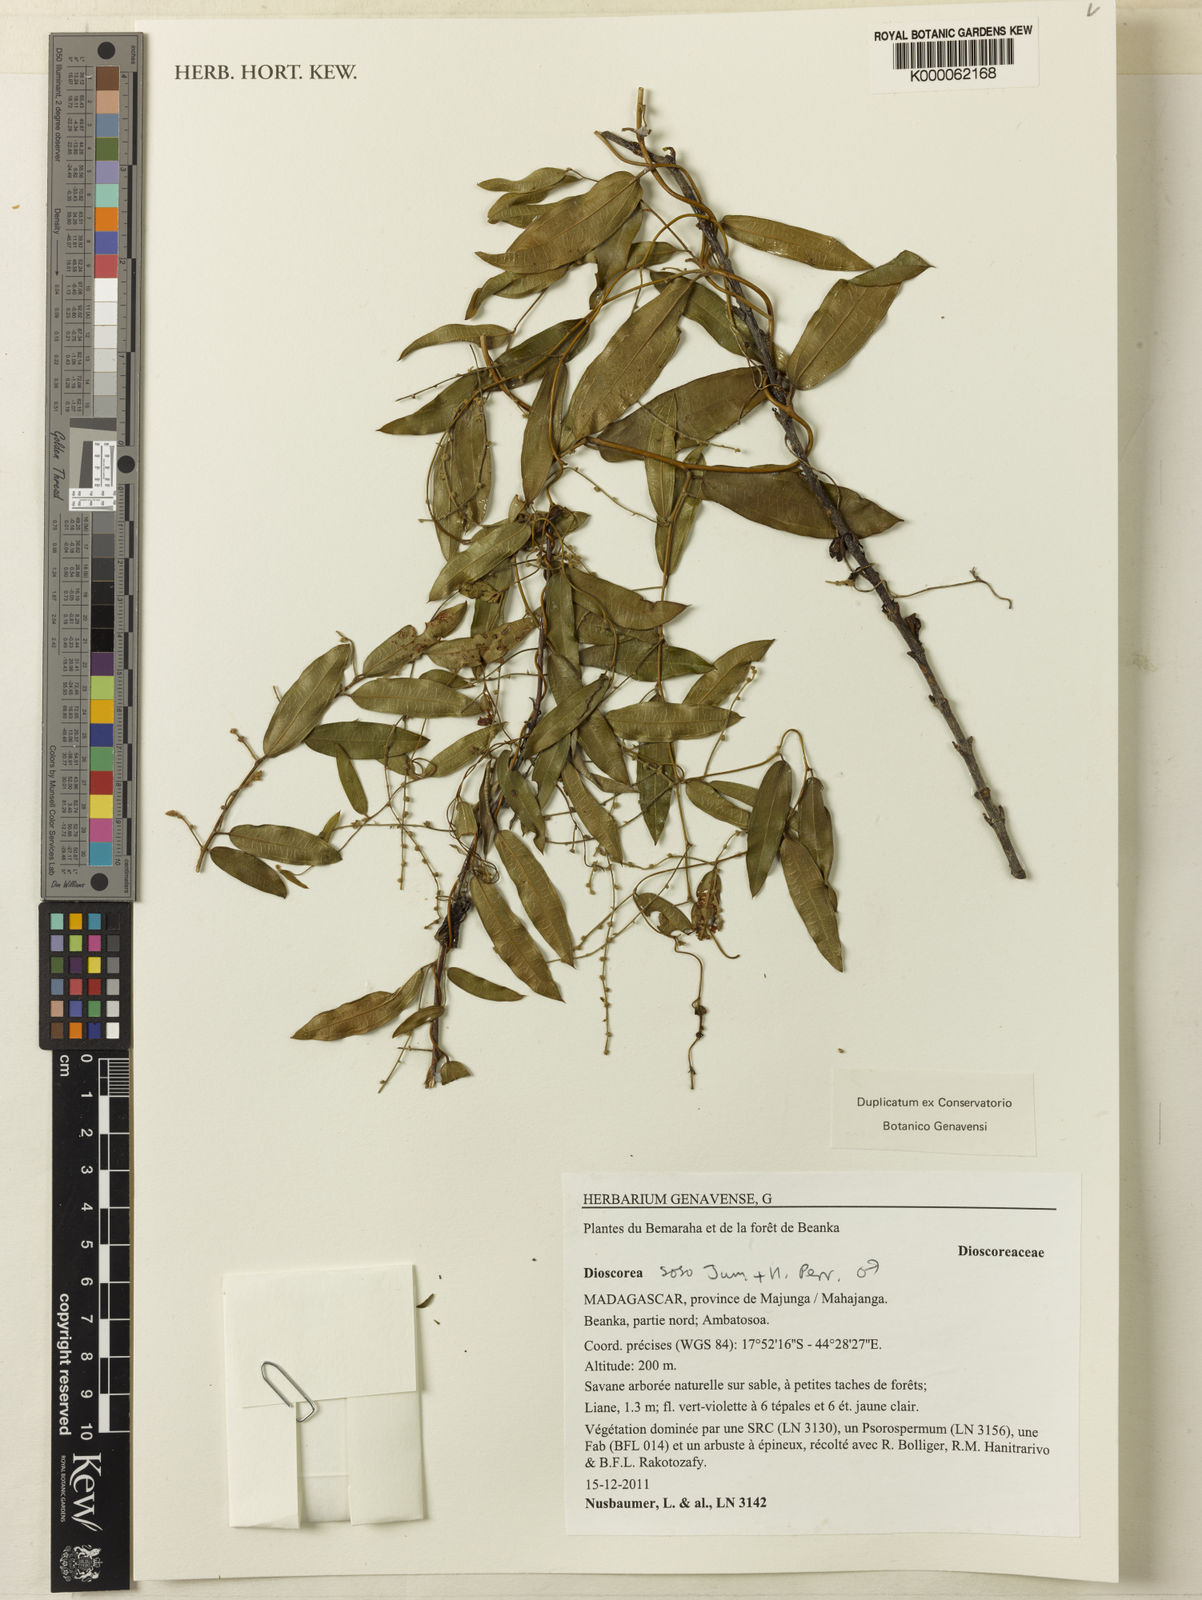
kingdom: Plantae
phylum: Tracheophyta
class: Liliopsida
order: Dioscoreales
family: Dioscoreaceae
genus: Dioscorea
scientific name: Dioscorea soso
